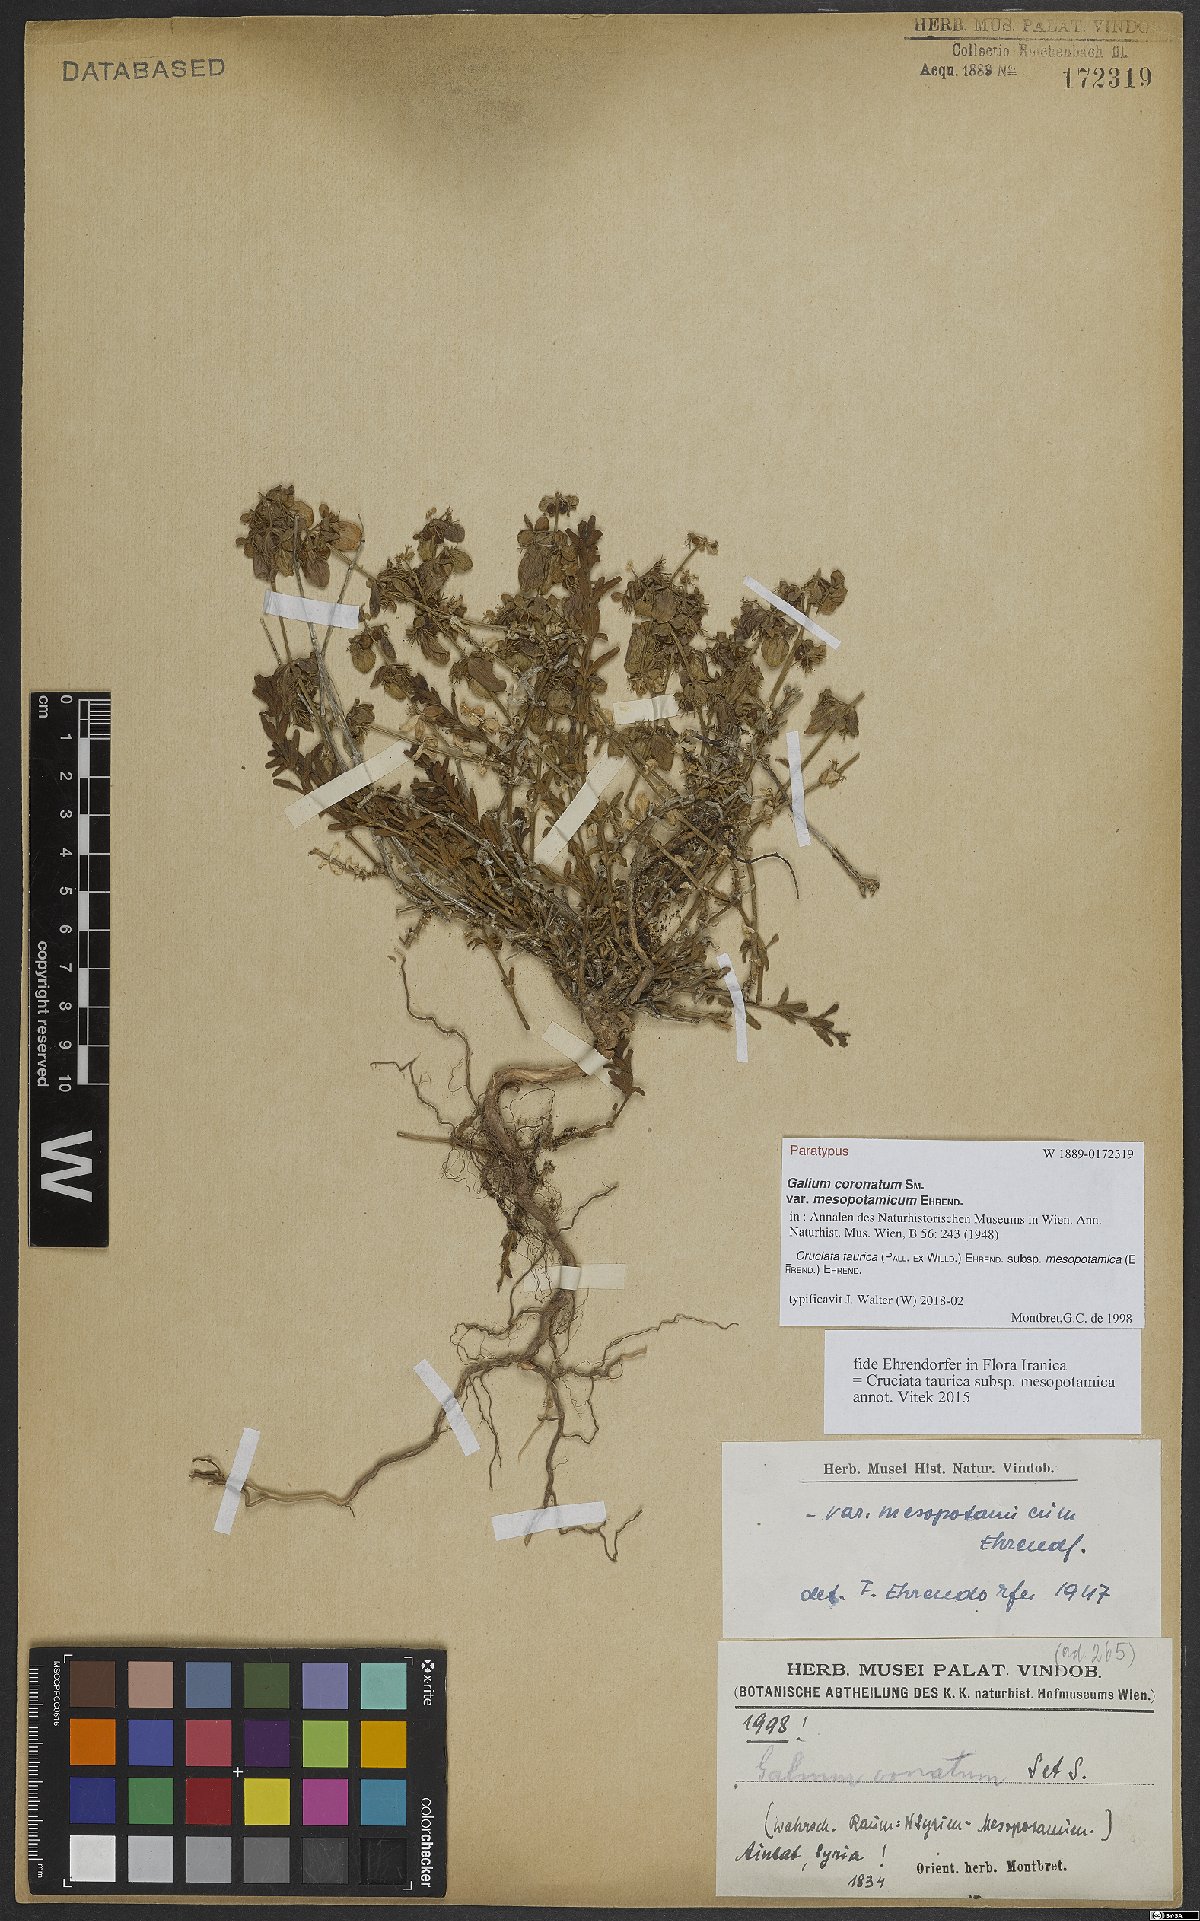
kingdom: Plantae
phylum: Tracheophyta
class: Magnoliopsida
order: Gentianales
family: Rubiaceae
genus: Cruciata
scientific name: Cruciata taurica
